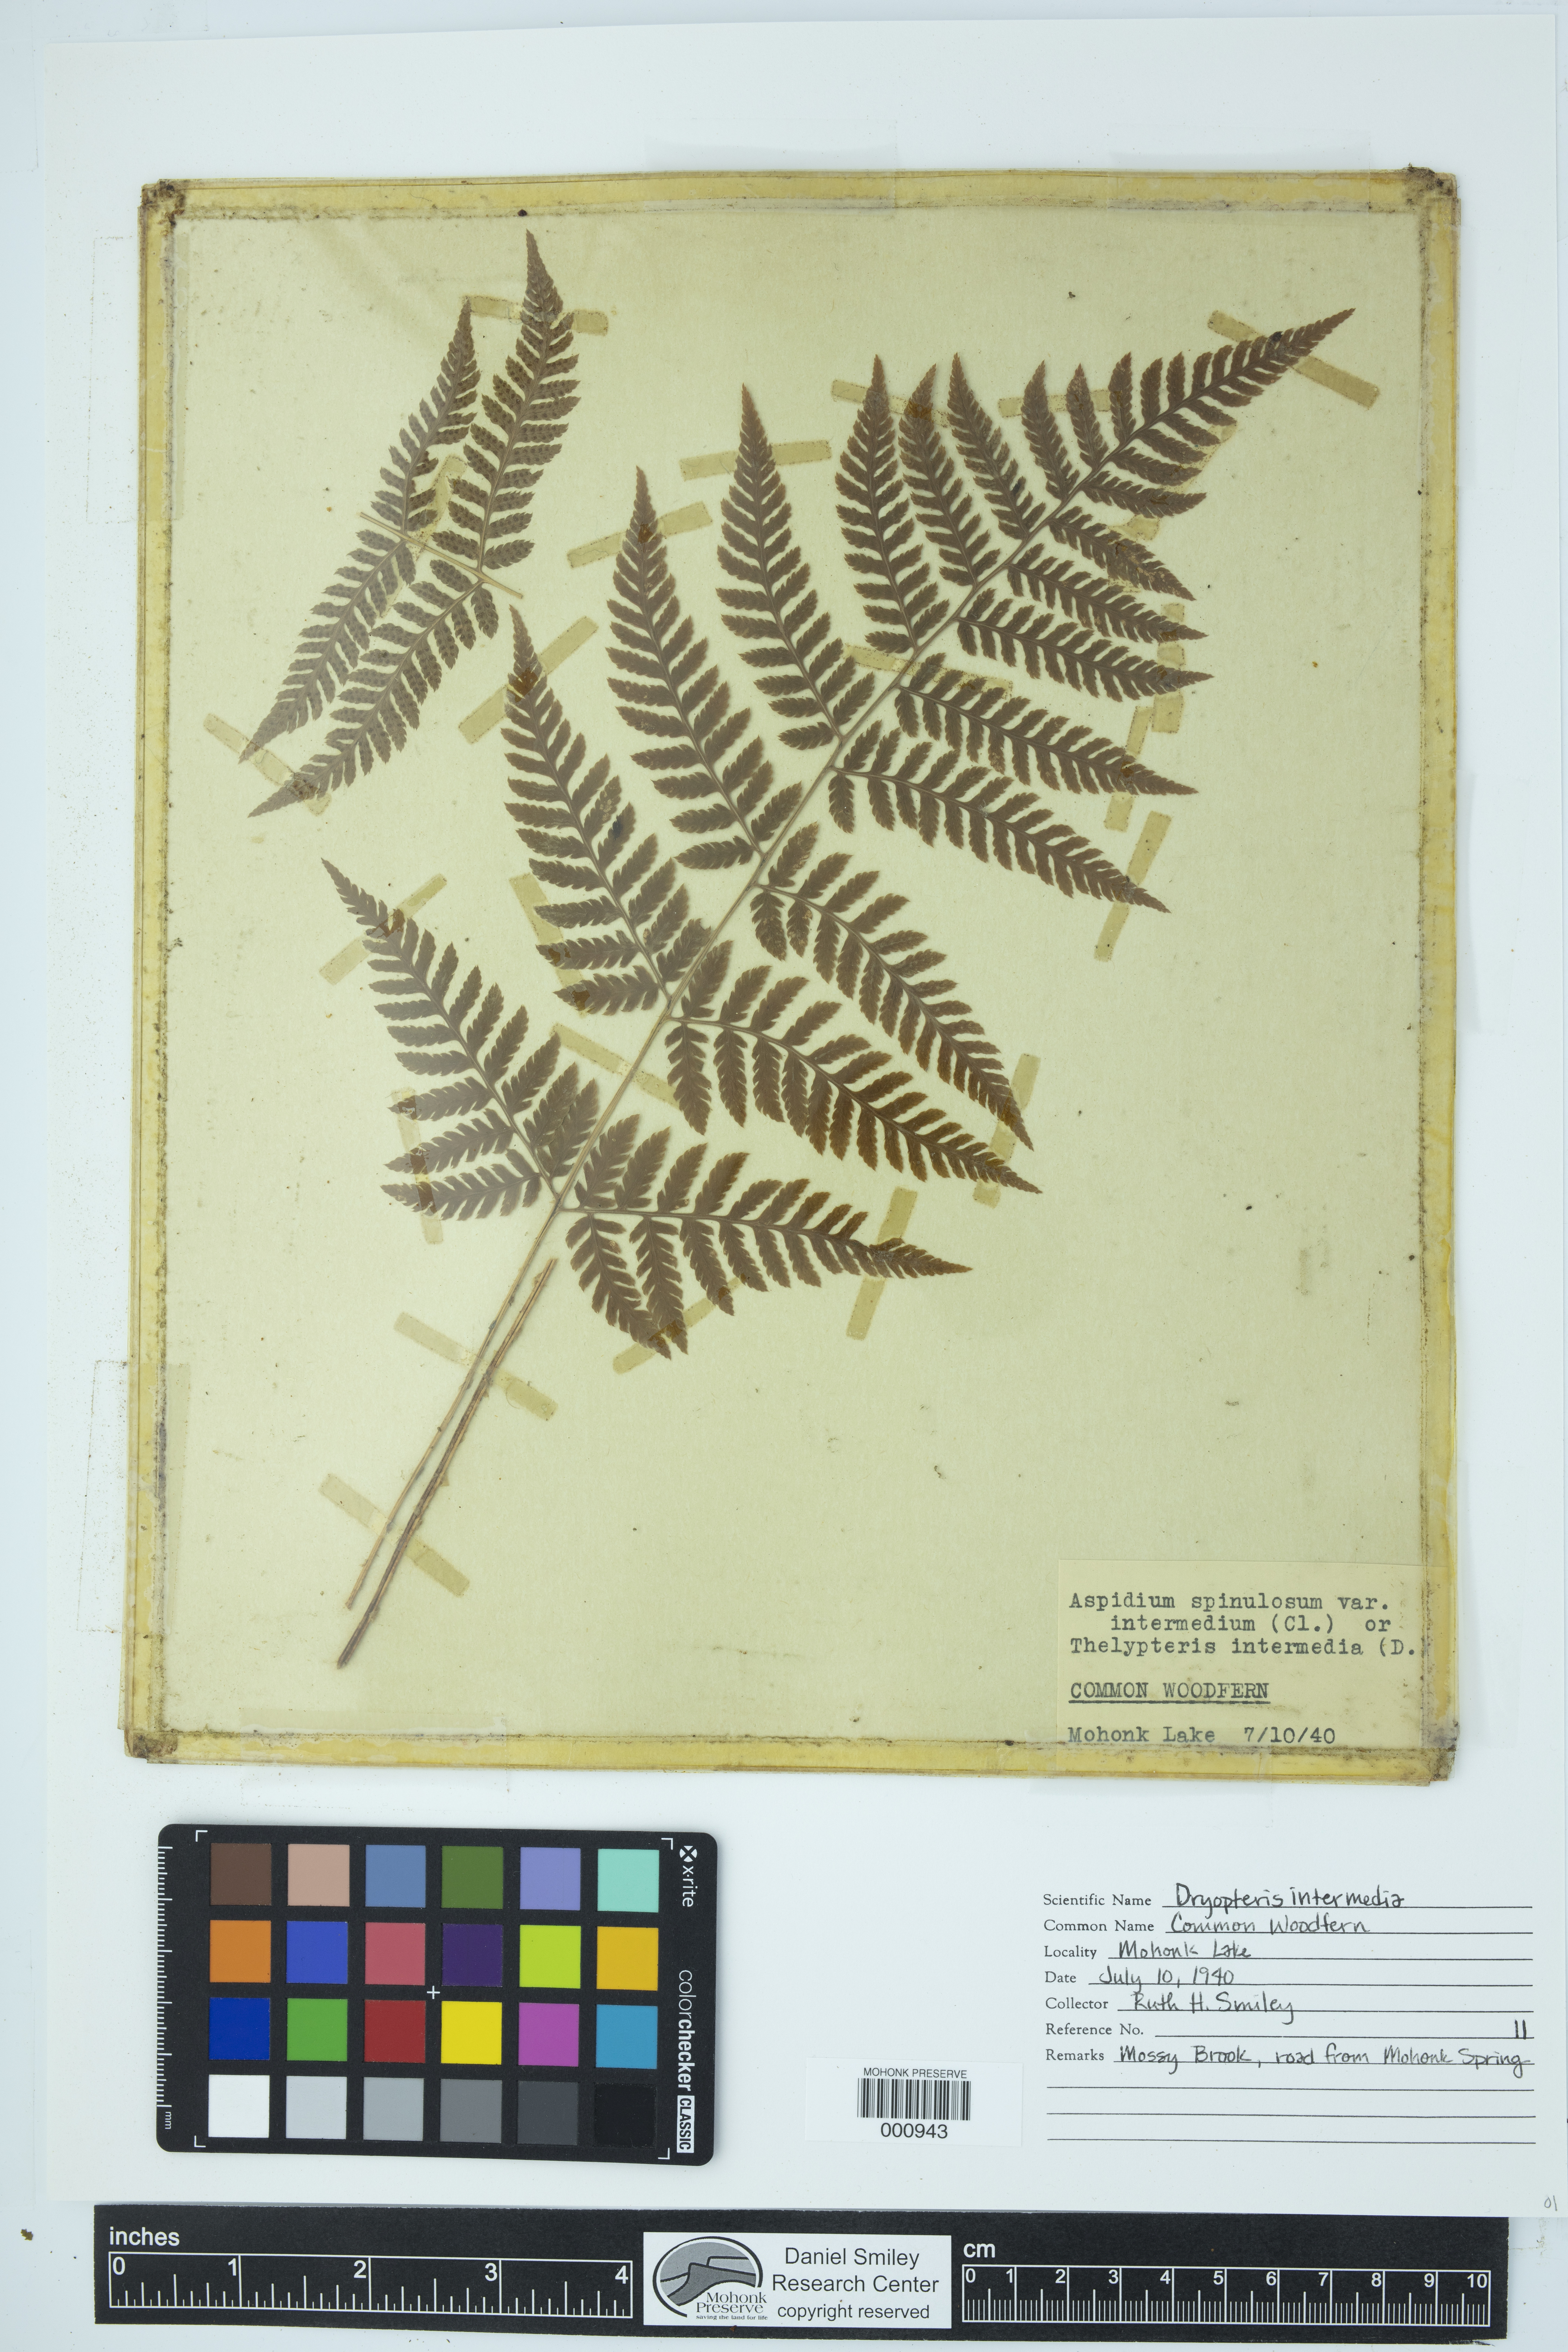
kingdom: Plantae
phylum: Tracheophyta
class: Polypodiopsida
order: Polypodiales
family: Dryopteridaceae
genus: Dryopteris
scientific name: Dryopteris intermedia
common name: Evergreen wood fern
